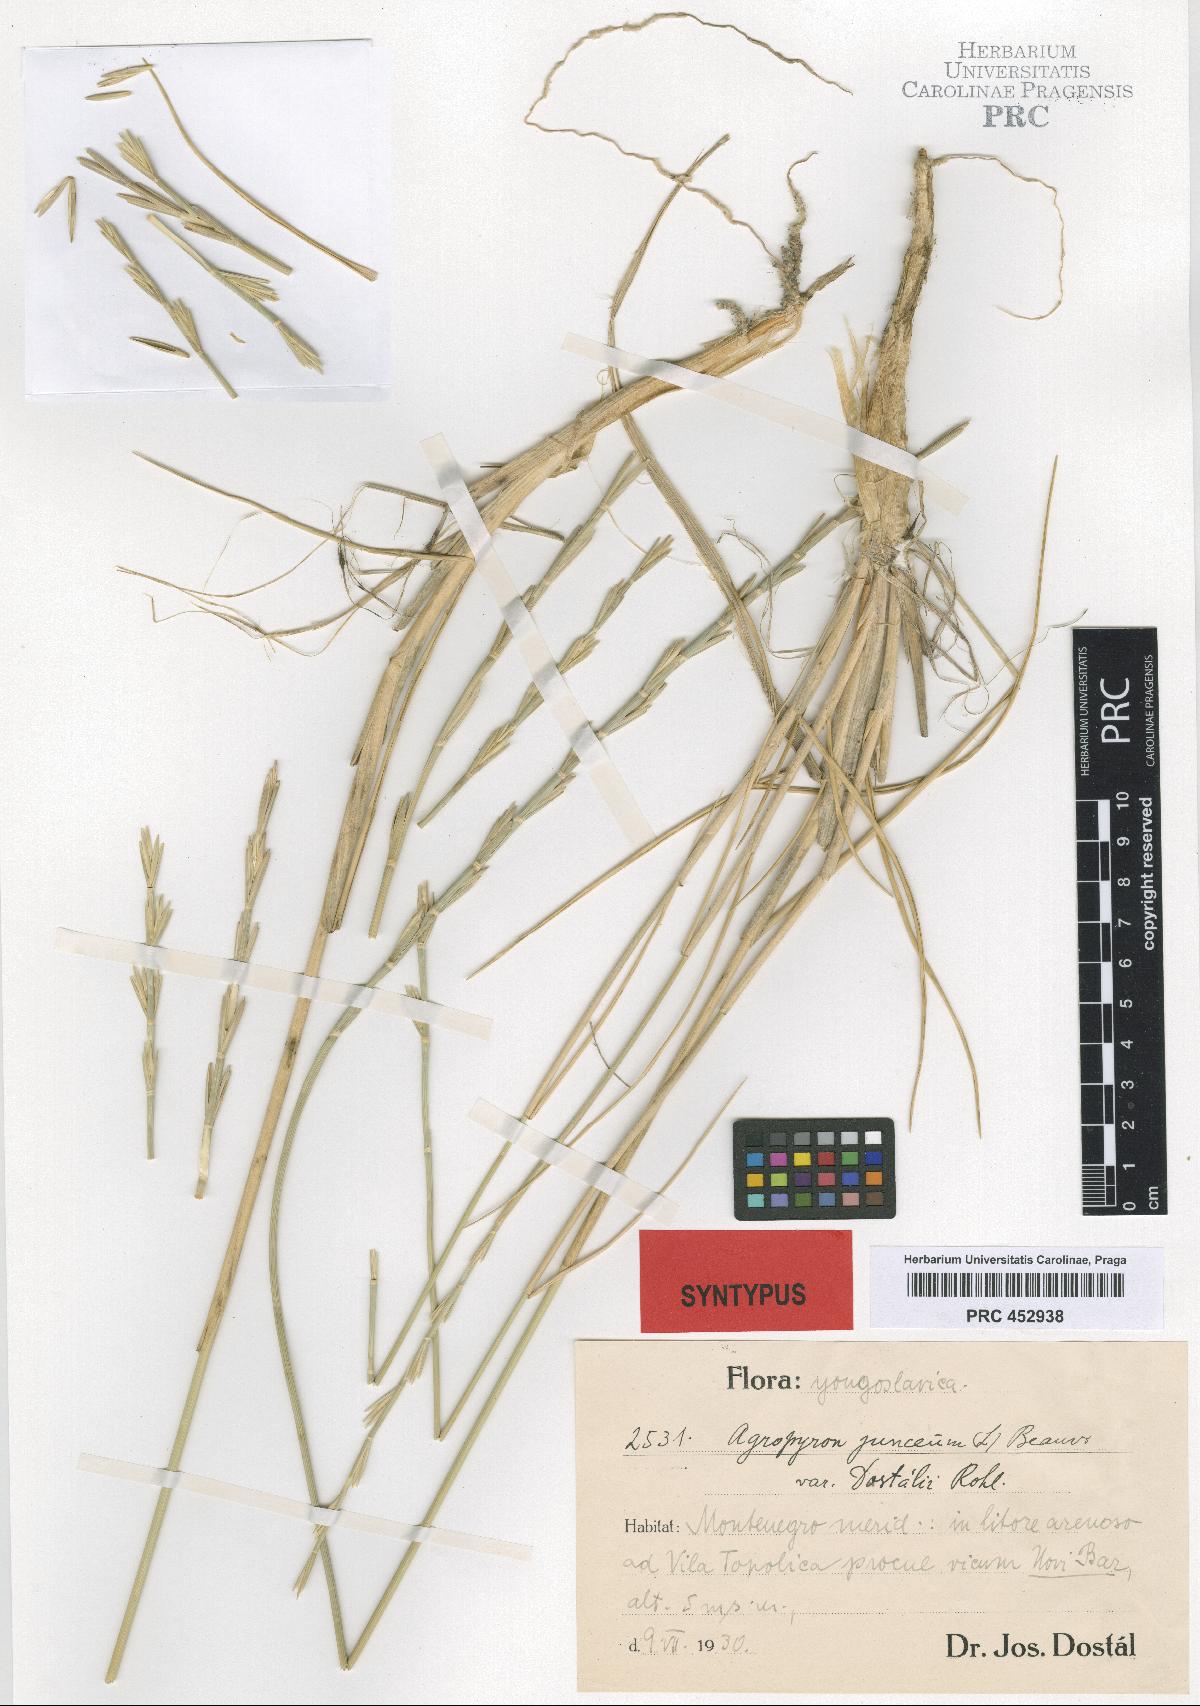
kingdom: Plantae
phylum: Tracheophyta
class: Liliopsida
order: Poales
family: Poaceae
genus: Thinopyrum
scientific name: Thinopyrum junceum
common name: Russian wheatgrass
